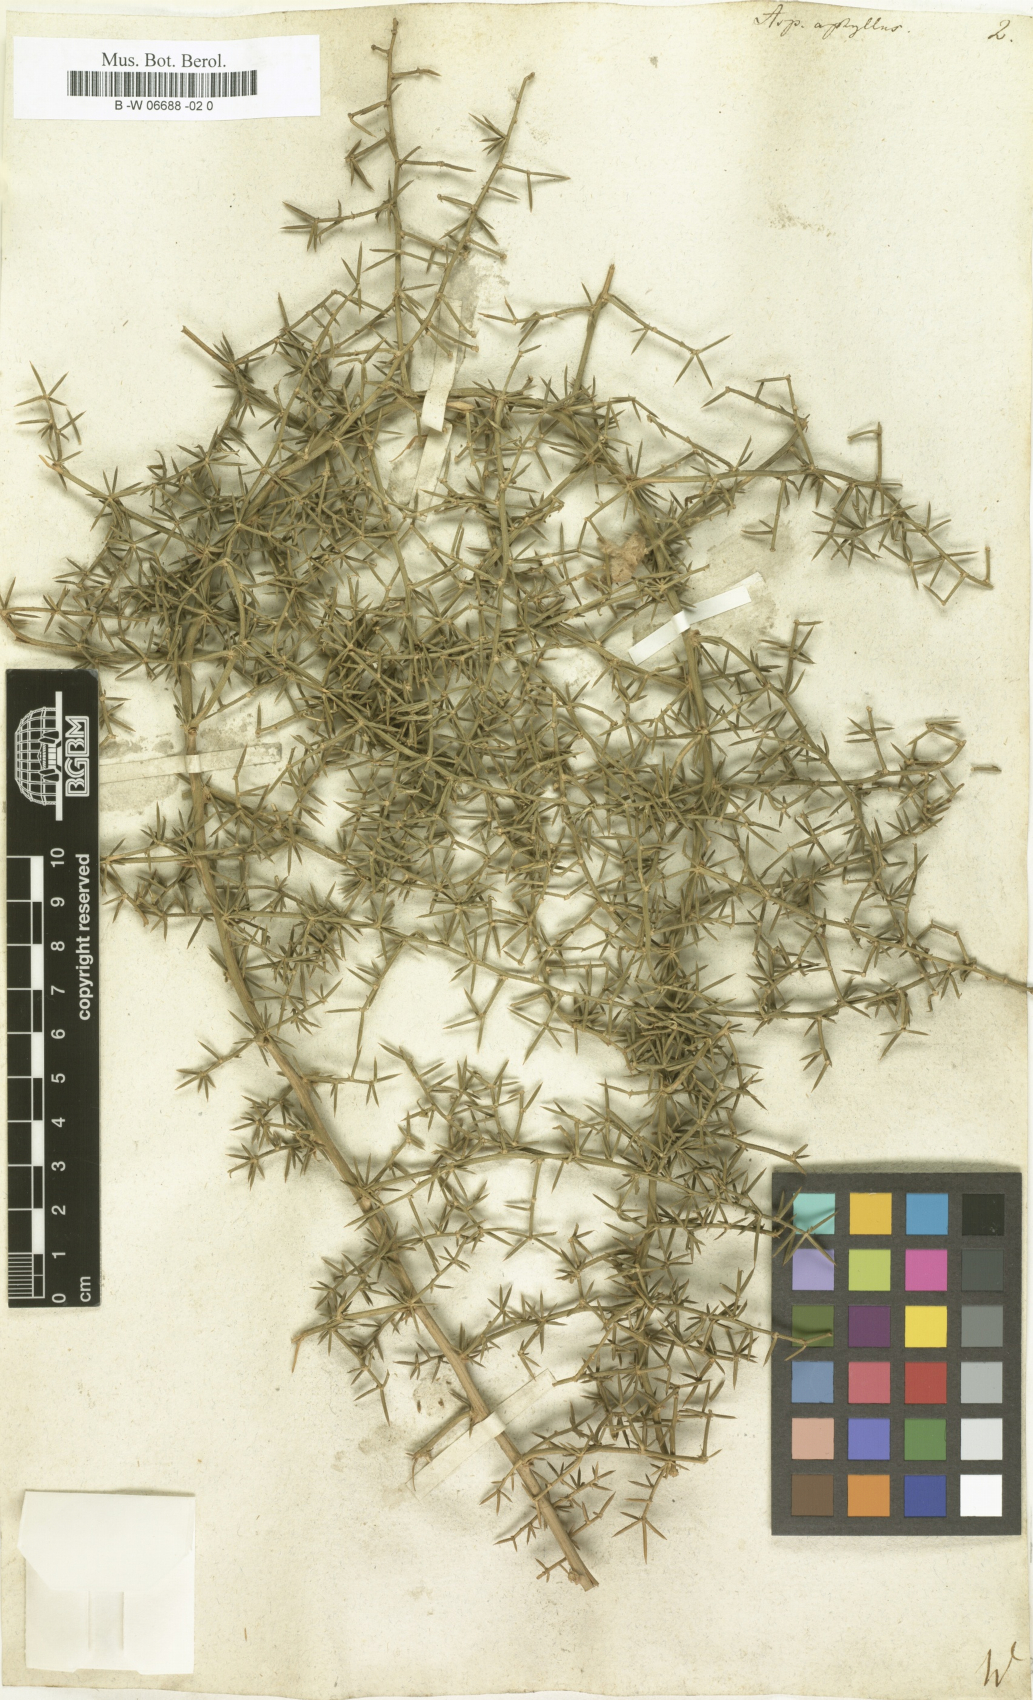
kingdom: Plantae
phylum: Tracheophyta
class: Liliopsida
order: Asparagales
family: Asparagaceae
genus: Asparagus
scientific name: Asparagus aphyllus
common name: Mediterranean asparagus
